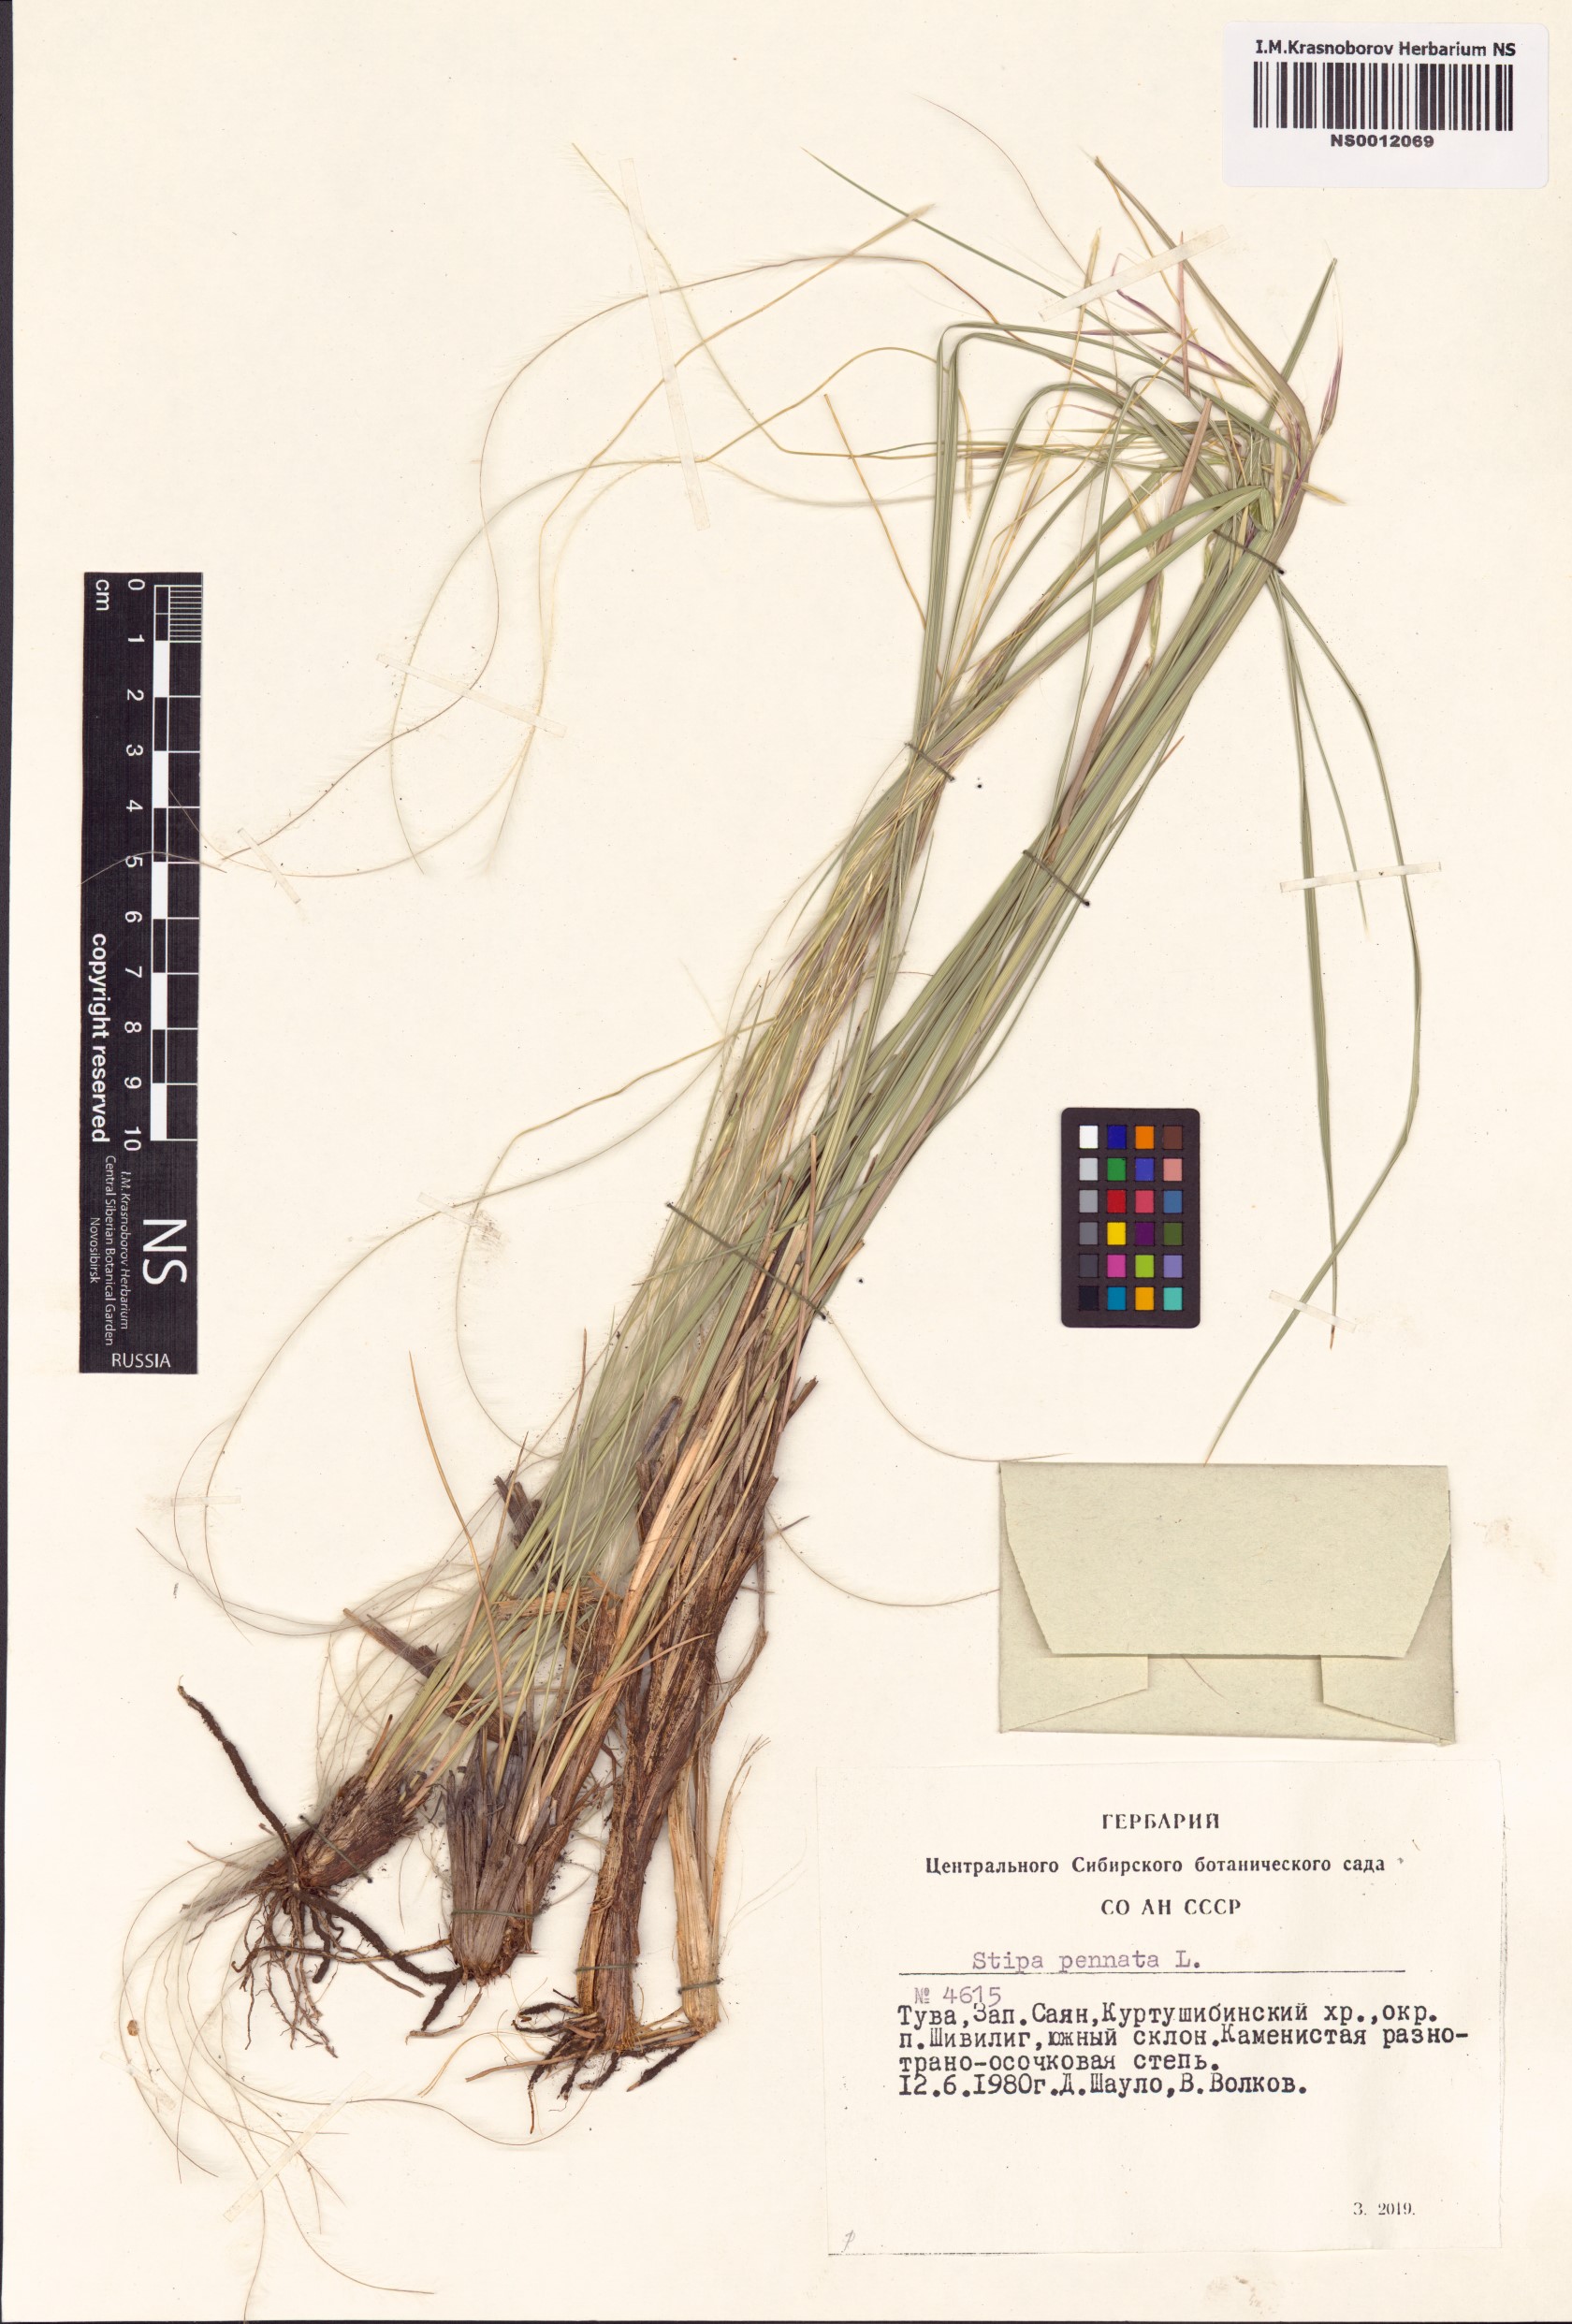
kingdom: Plantae
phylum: Tracheophyta
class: Liliopsida
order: Poales
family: Poaceae
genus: Stipa
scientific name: Stipa pennata
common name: European feather grass
